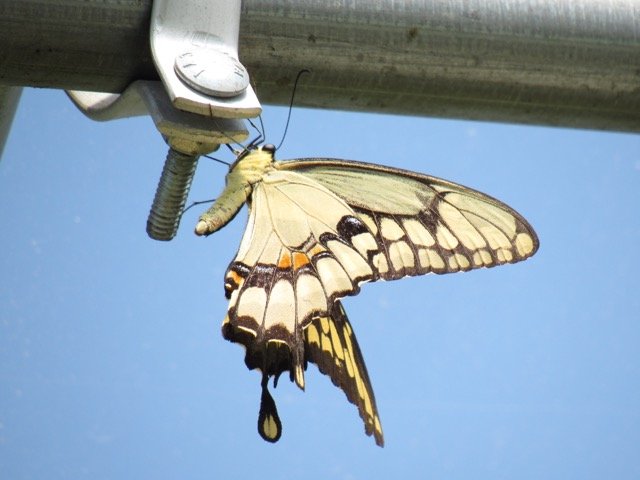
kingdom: Animalia
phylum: Arthropoda
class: Insecta
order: Lepidoptera
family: Papilionidae
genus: Papilio
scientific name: Papilio cresphontes
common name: Eastern Giant Swallowtail
